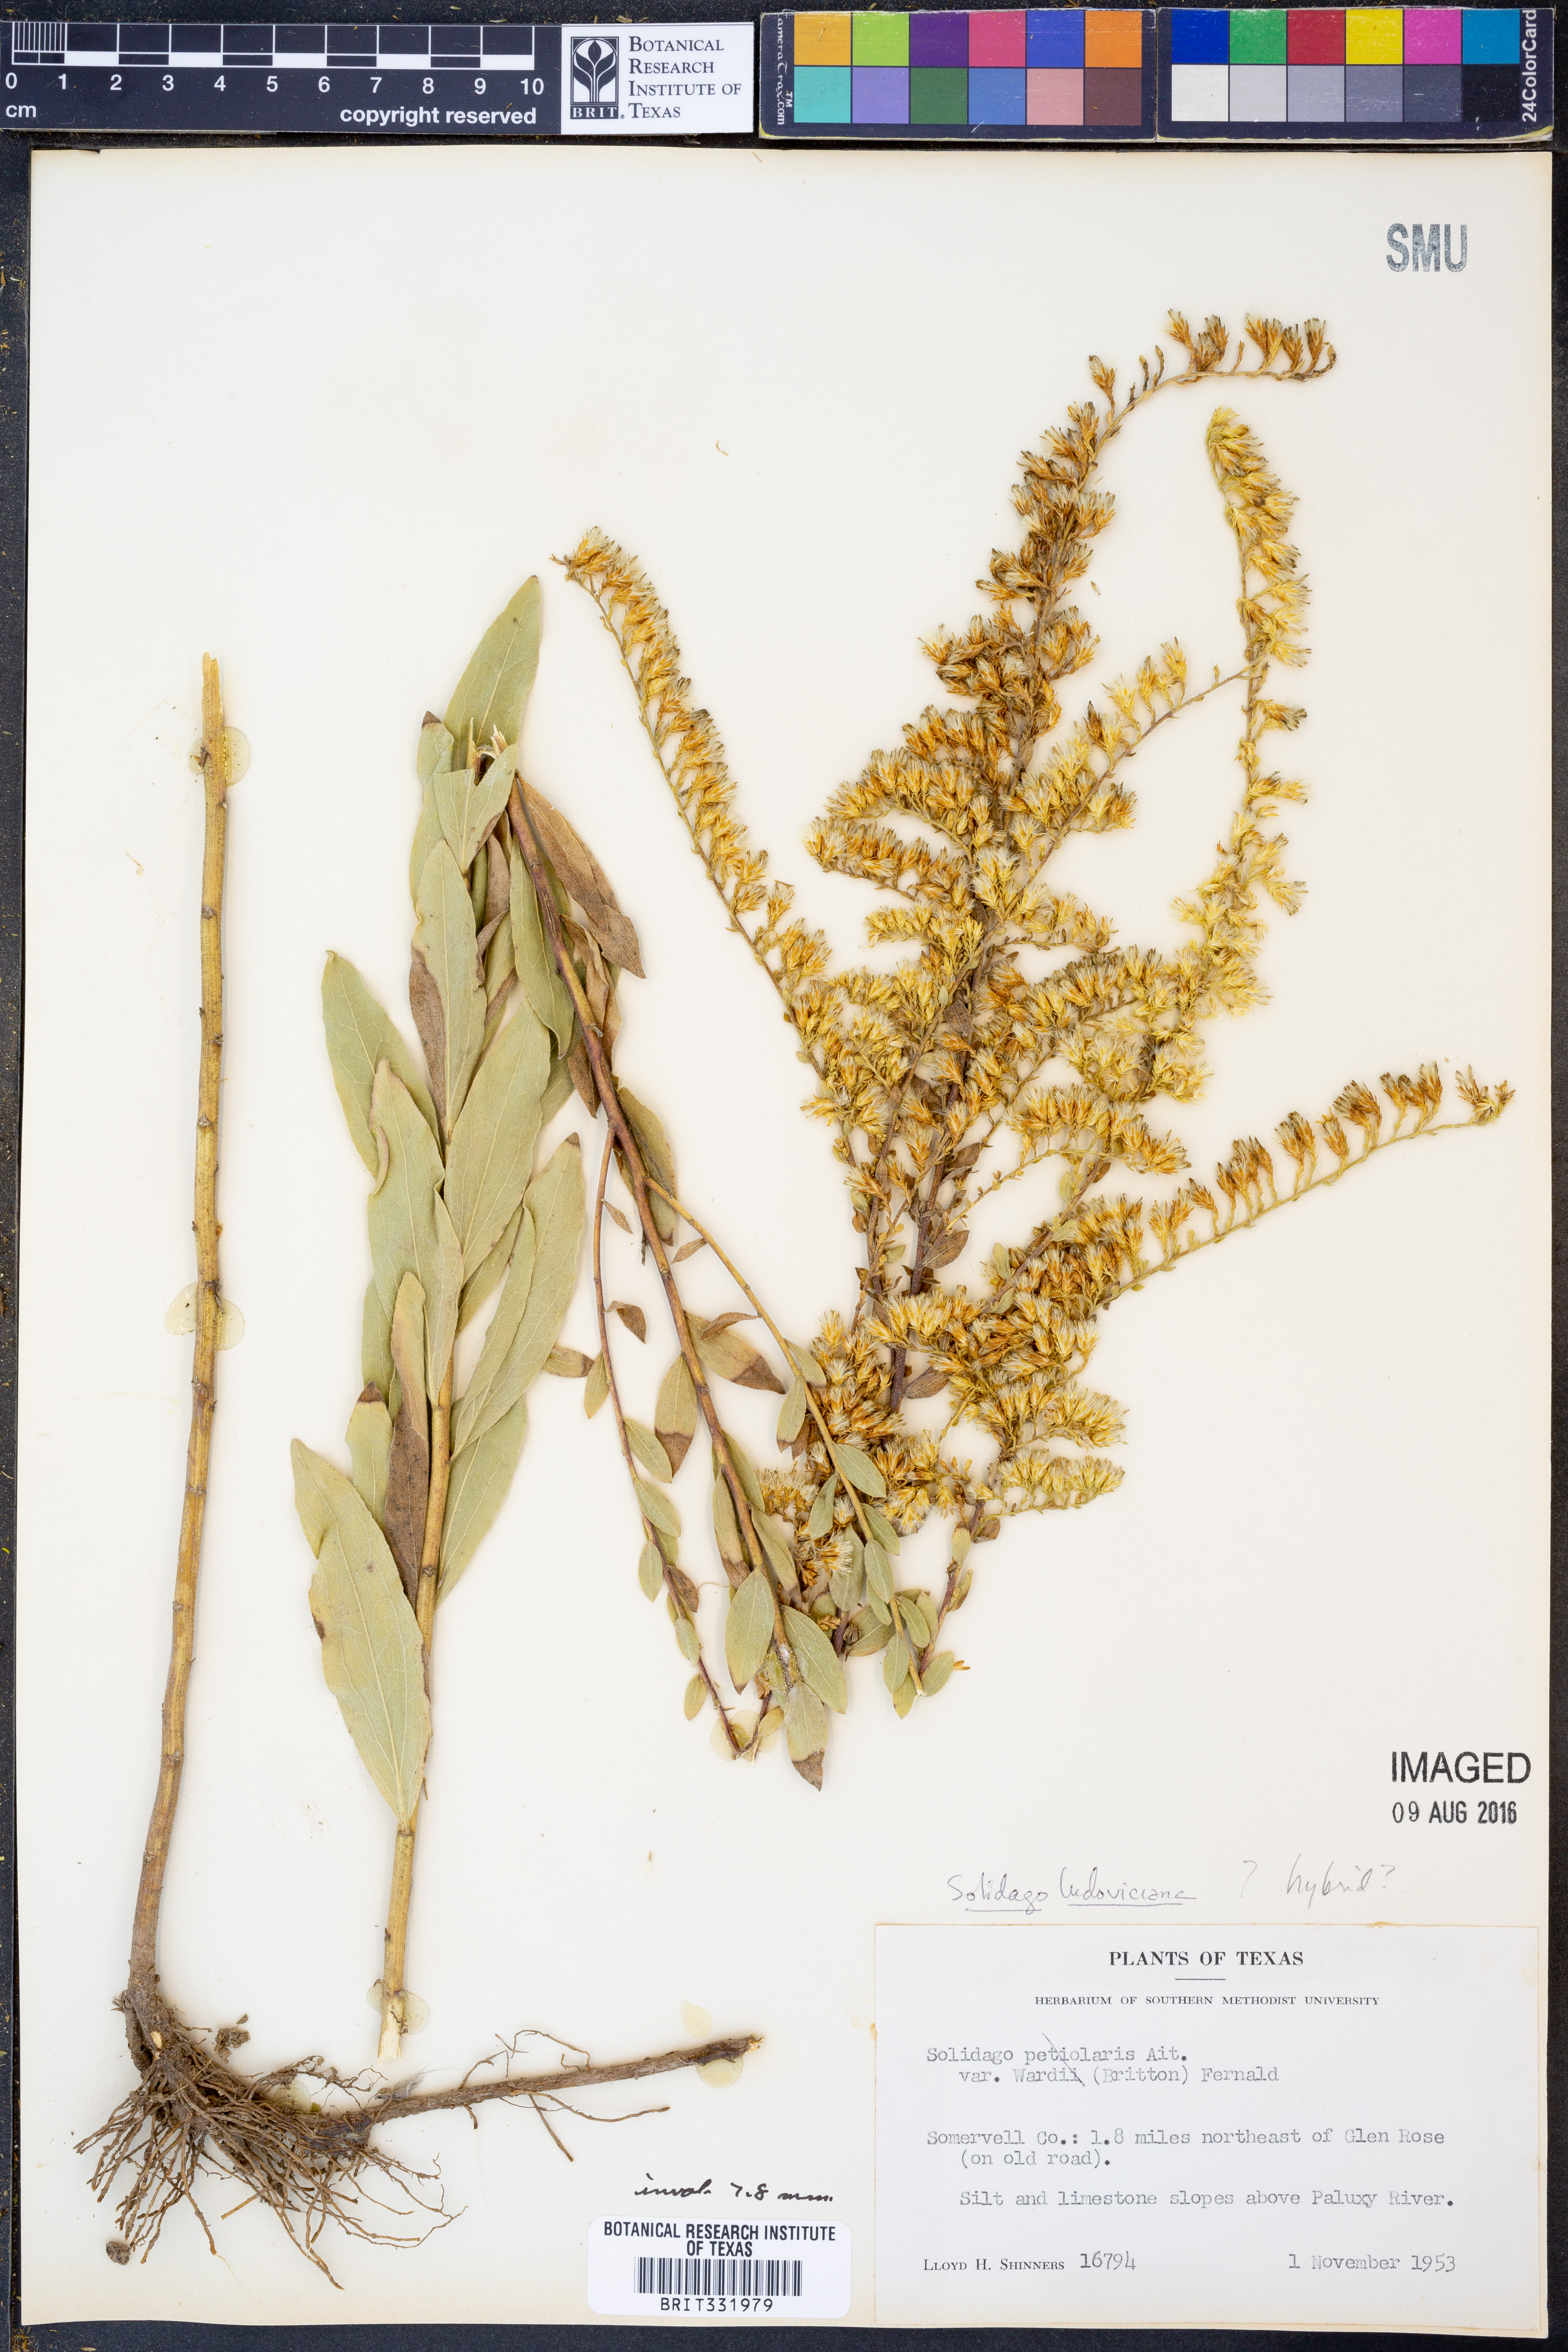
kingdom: Plantae
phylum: Tracheophyta
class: Magnoliopsida
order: Asterales
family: Asteraceae
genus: Solidago
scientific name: Solidago ludoviciana
